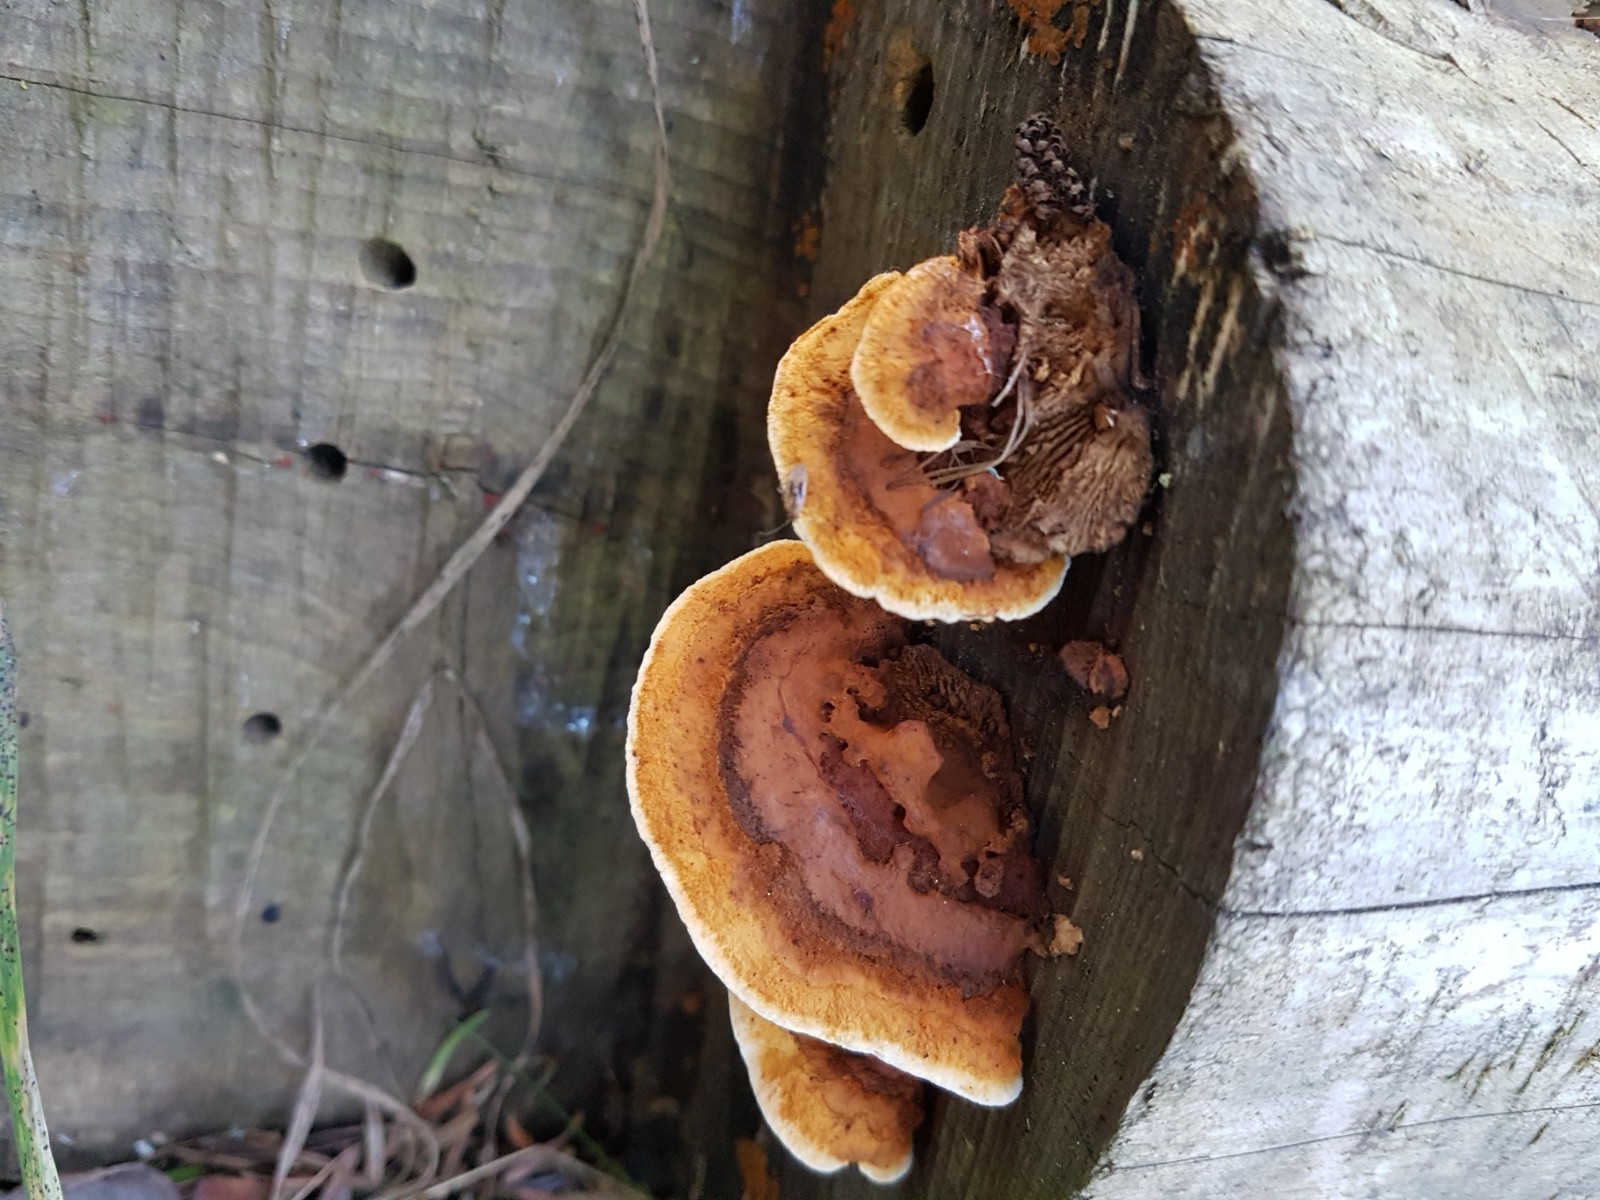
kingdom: Fungi
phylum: Basidiomycota
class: Agaricomycetes
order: Gloeophyllales
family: Gloeophyllaceae
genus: Gloeophyllum
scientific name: Gloeophyllum sepiarium
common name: fyrre-korkhat
